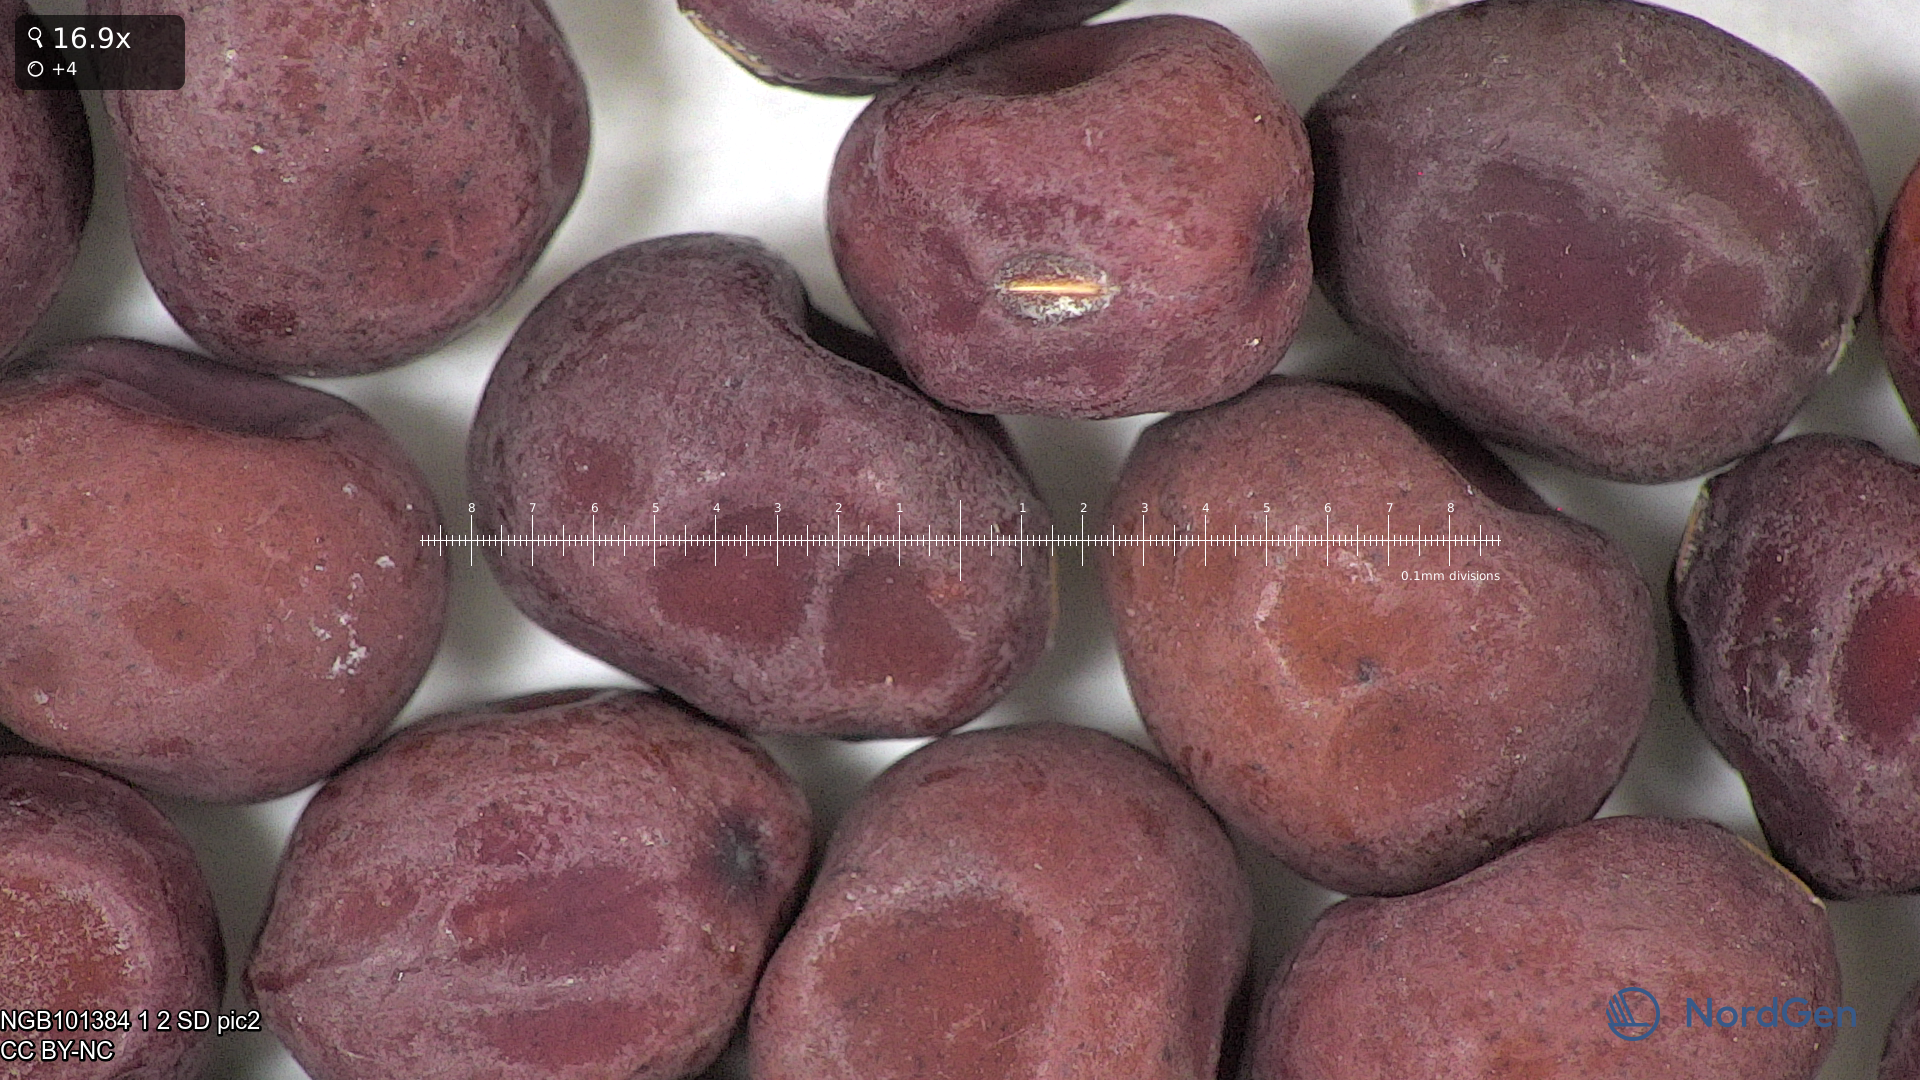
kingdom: Plantae
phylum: Tracheophyta
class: Magnoliopsida
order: Fabales
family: Fabaceae
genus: Lathyrus
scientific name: Lathyrus oleraceus
